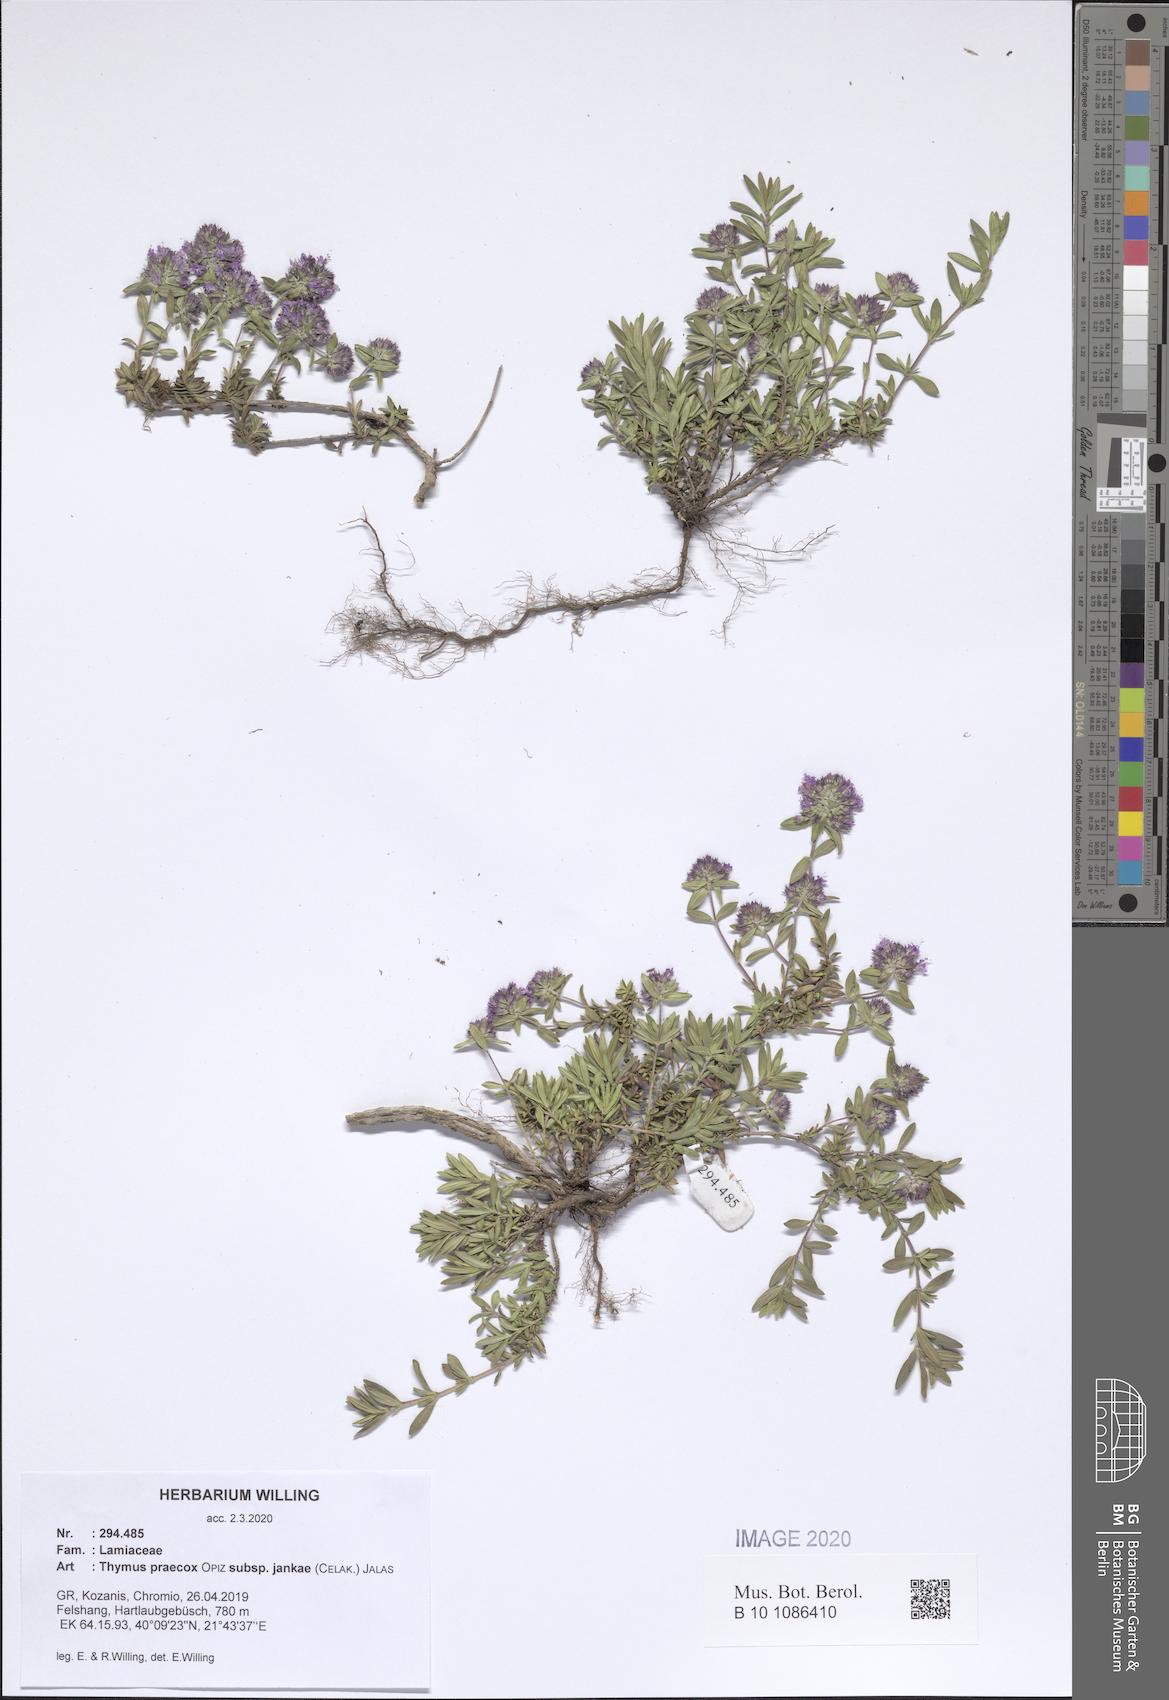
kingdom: Plantae
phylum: Tracheophyta
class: Magnoliopsida
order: Lamiales
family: Lamiaceae
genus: Thymus
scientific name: Thymus jankae
